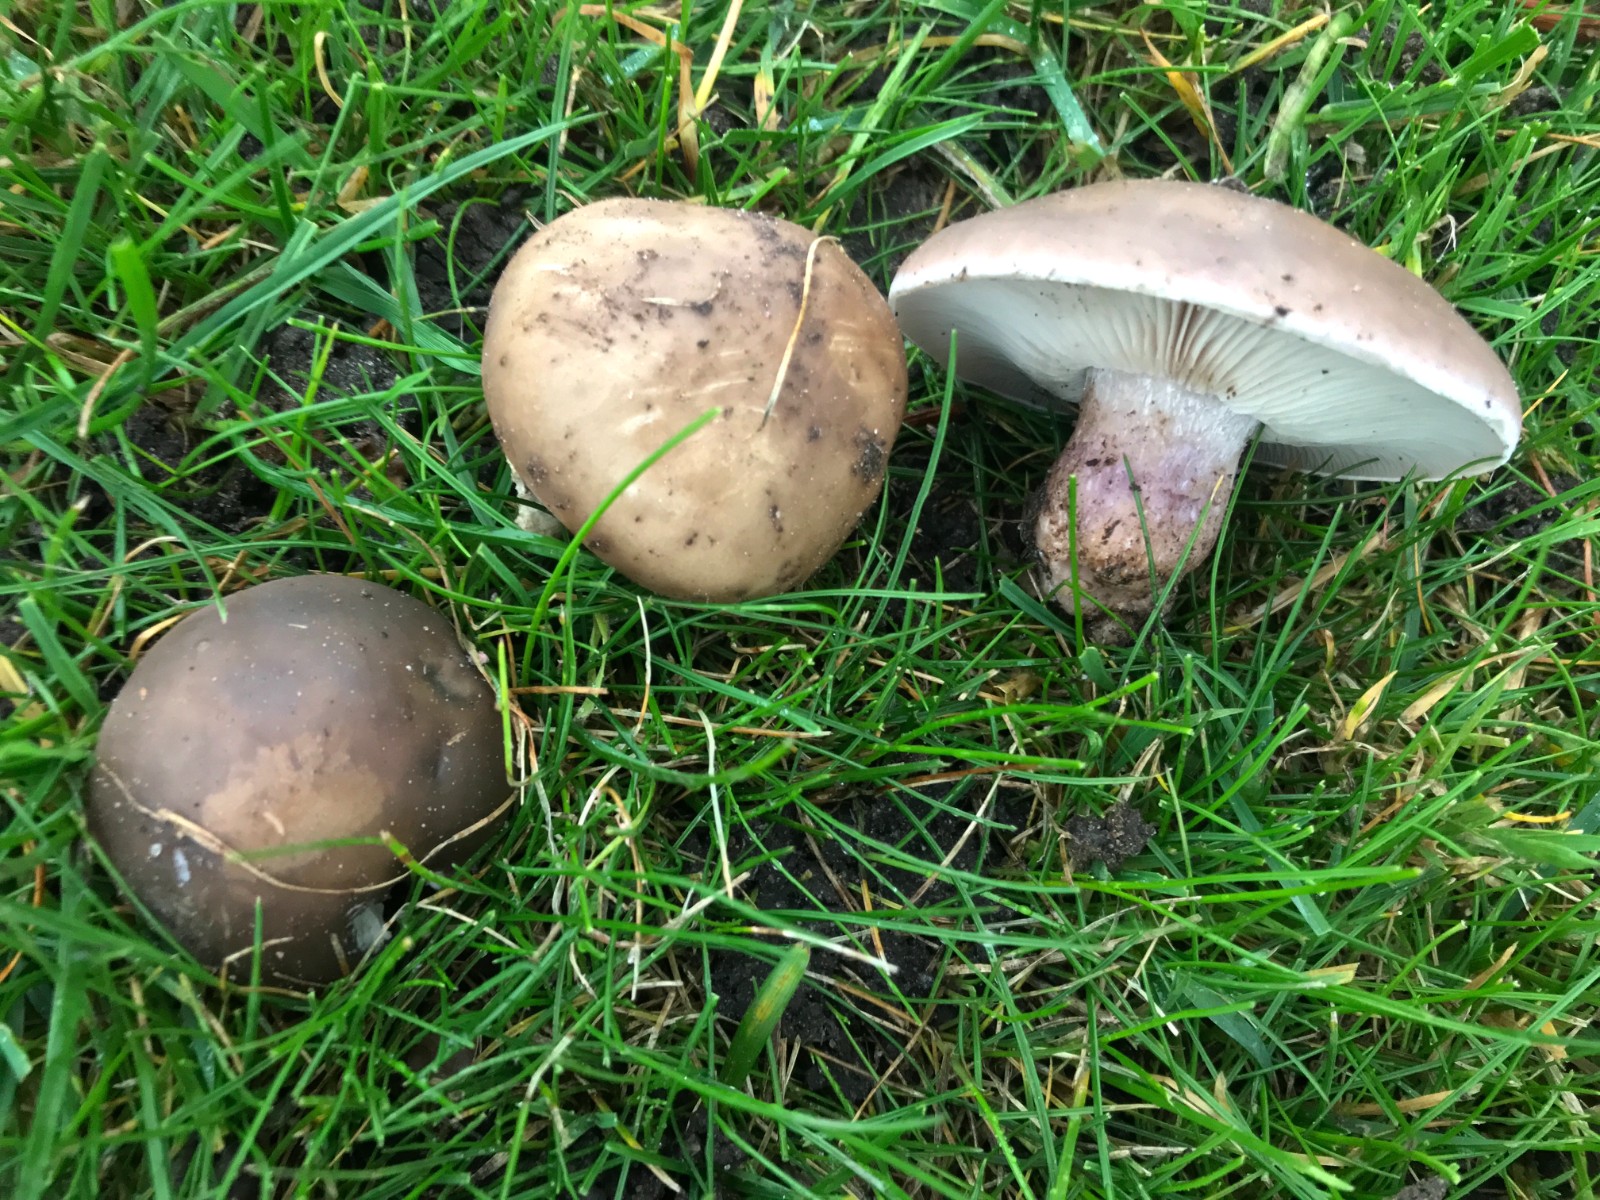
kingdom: Fungi
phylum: Basidiomycota
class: Agaricomycetes
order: Agaricales
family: Tricholomataceae
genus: Lepista
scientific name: Lepista personata
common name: bleg hekseringshat
